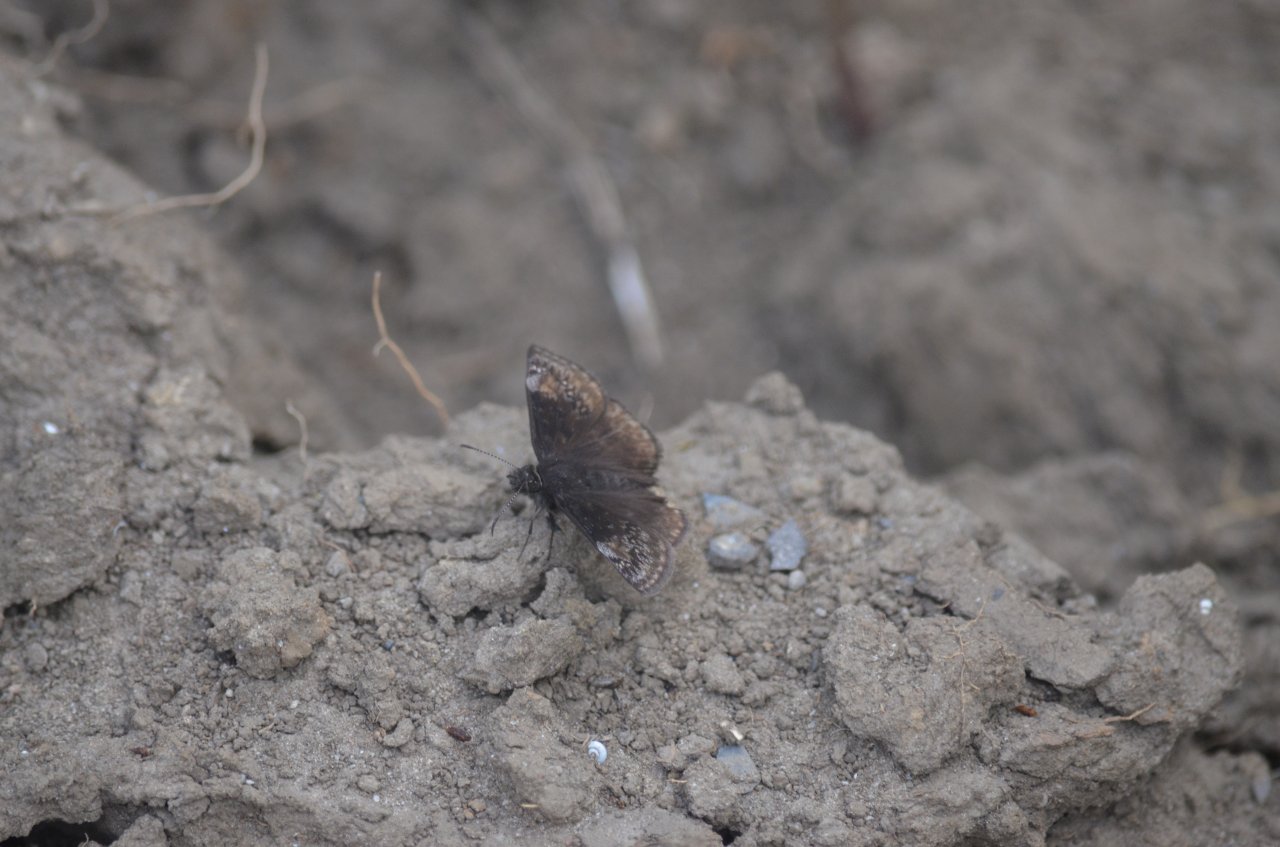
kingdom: Animalia
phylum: Arthropoda
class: Insecta
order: Lepidoptera
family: Hesperiidae
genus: Gesta
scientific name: Gesta
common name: Wild Indigo Duskywing
